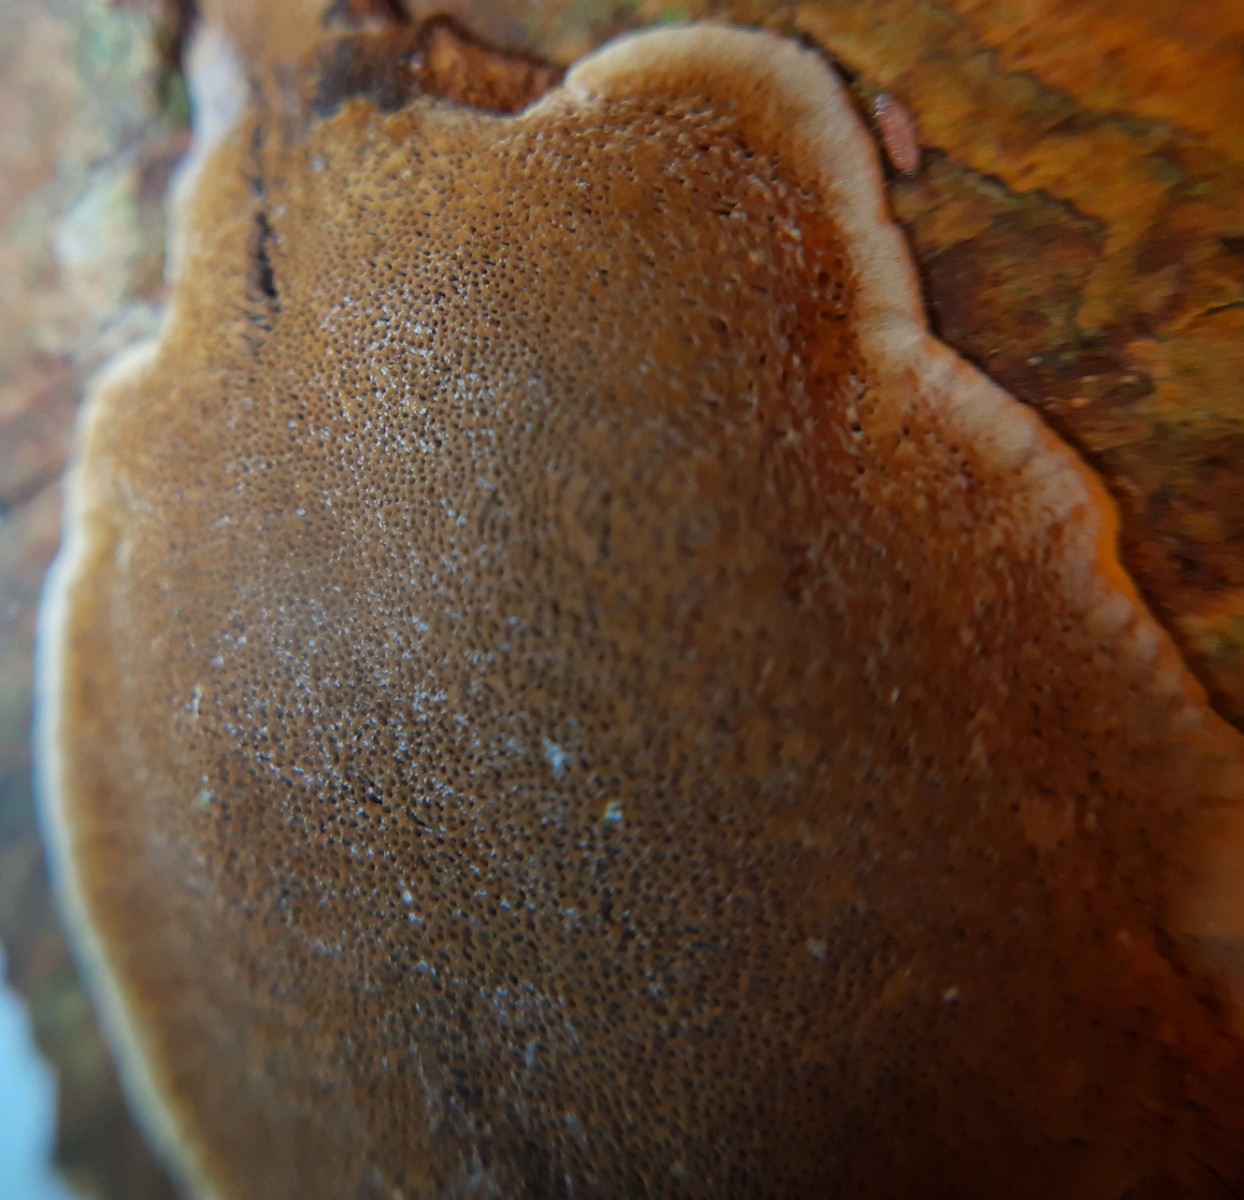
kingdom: Fungi
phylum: Basidiomycota
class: Agaricomycetes
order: Hymenochaetales
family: Hymenochaetaceae
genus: Phellinopsis
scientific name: Phellinopsis conchata
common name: pile-ildporesvamp
